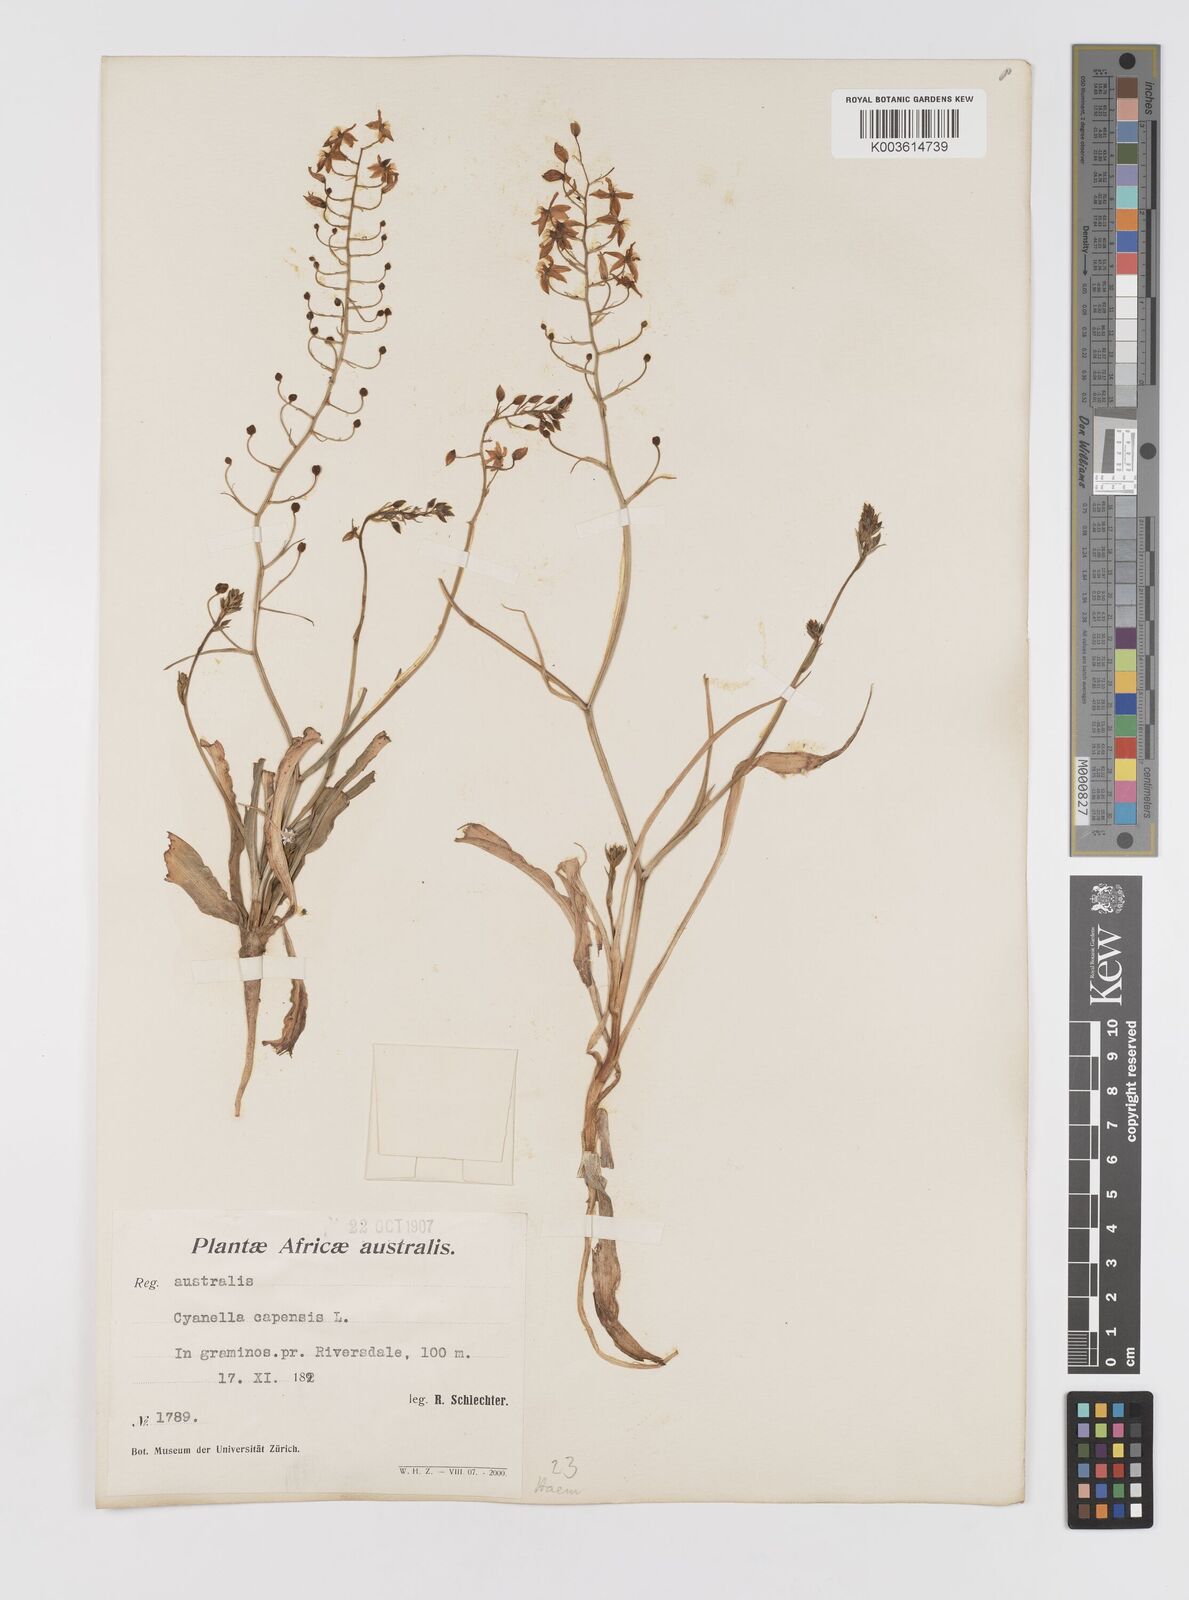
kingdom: Plantae
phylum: Tracheophyta
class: Liliopsida
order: Asparagales
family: Tecophilaeaceae
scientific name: Tecophilaeaceae
